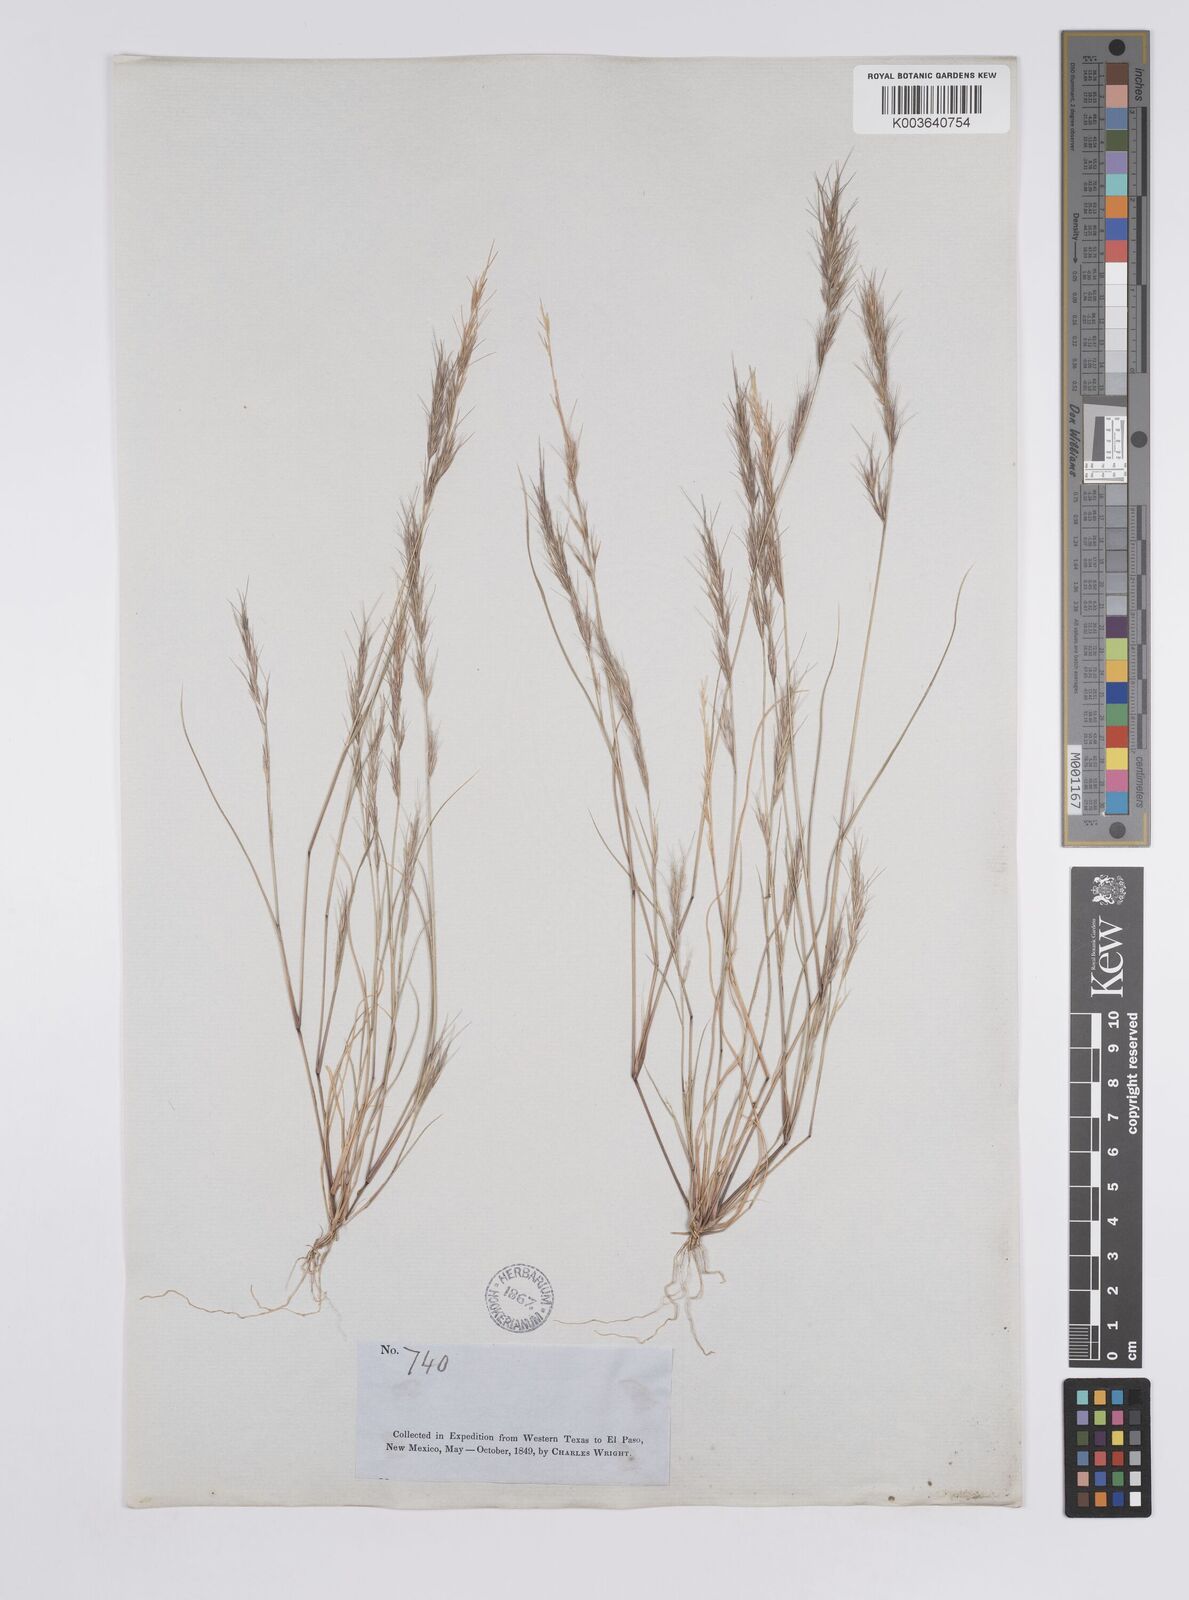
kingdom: Plantae
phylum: Tracheophyta
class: Liliopsida
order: Poales
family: Poaceae
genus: Aristida
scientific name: Aristida adscensionis
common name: Sixweeks threeawn
